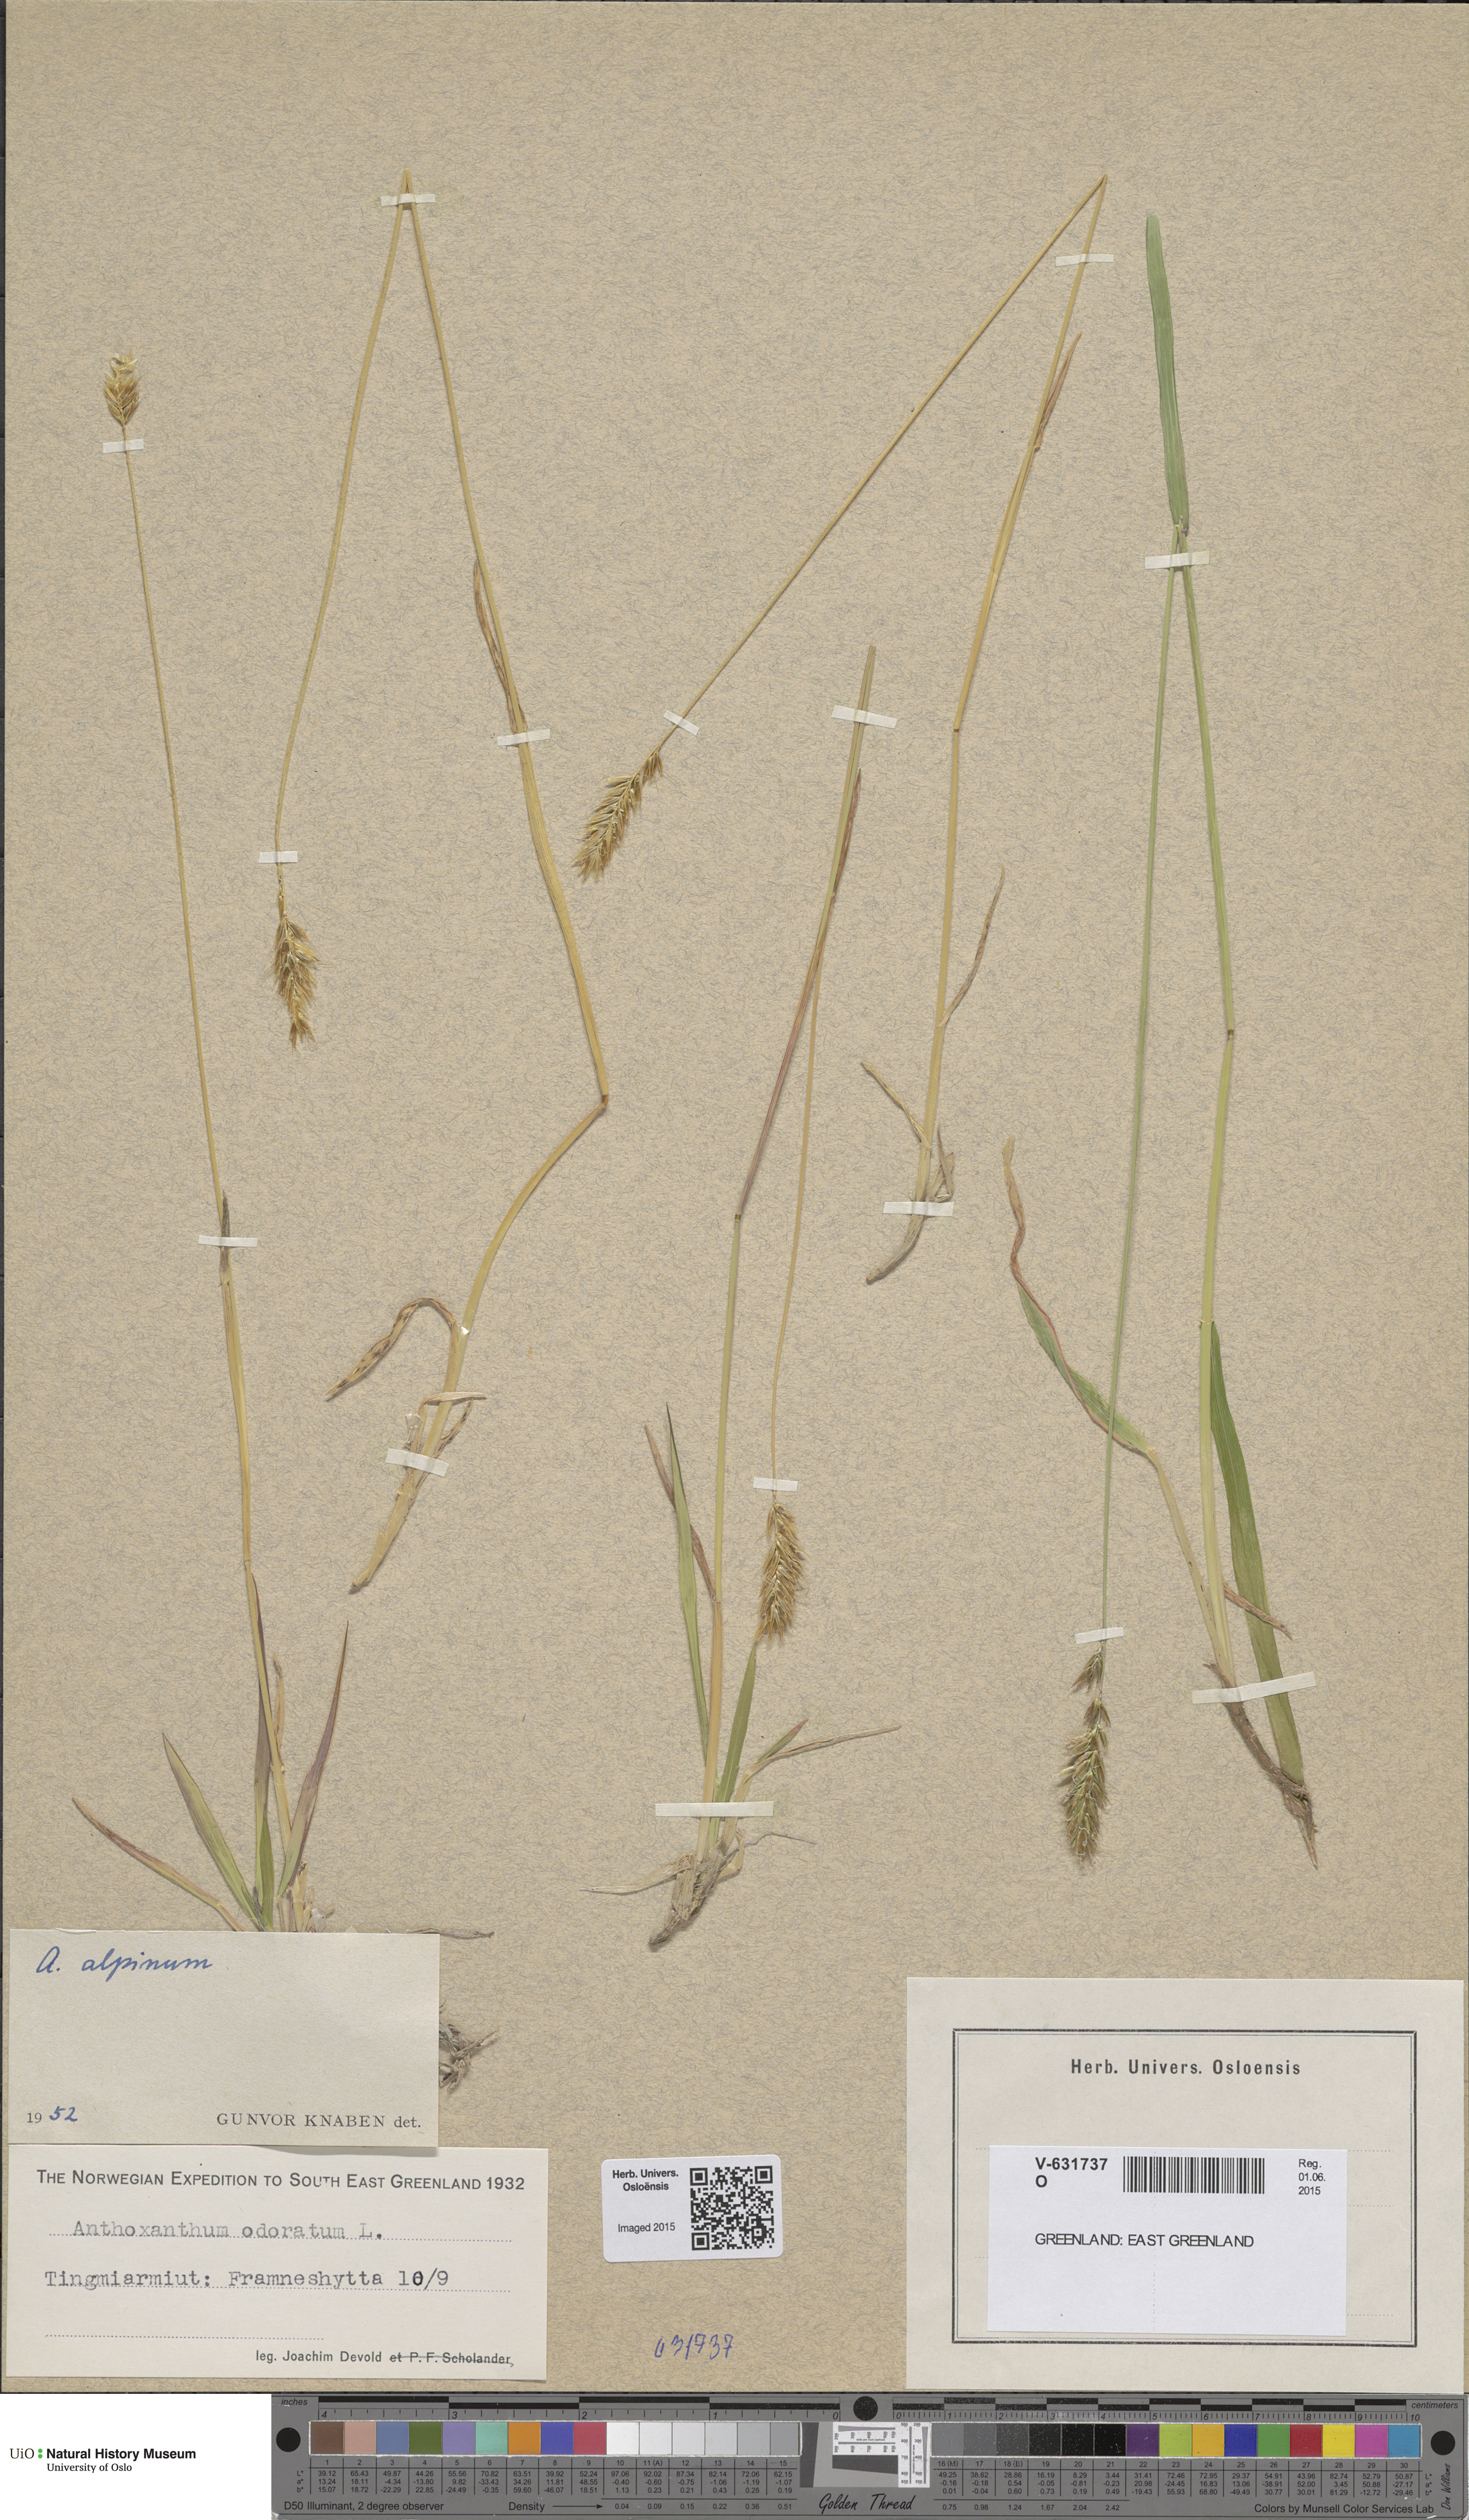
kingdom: Plantae
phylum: Tracheophyta
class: Liliopsida
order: Poales
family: Poaceae
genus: Anthoxanthum
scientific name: Anthoxanthum nipponicum
